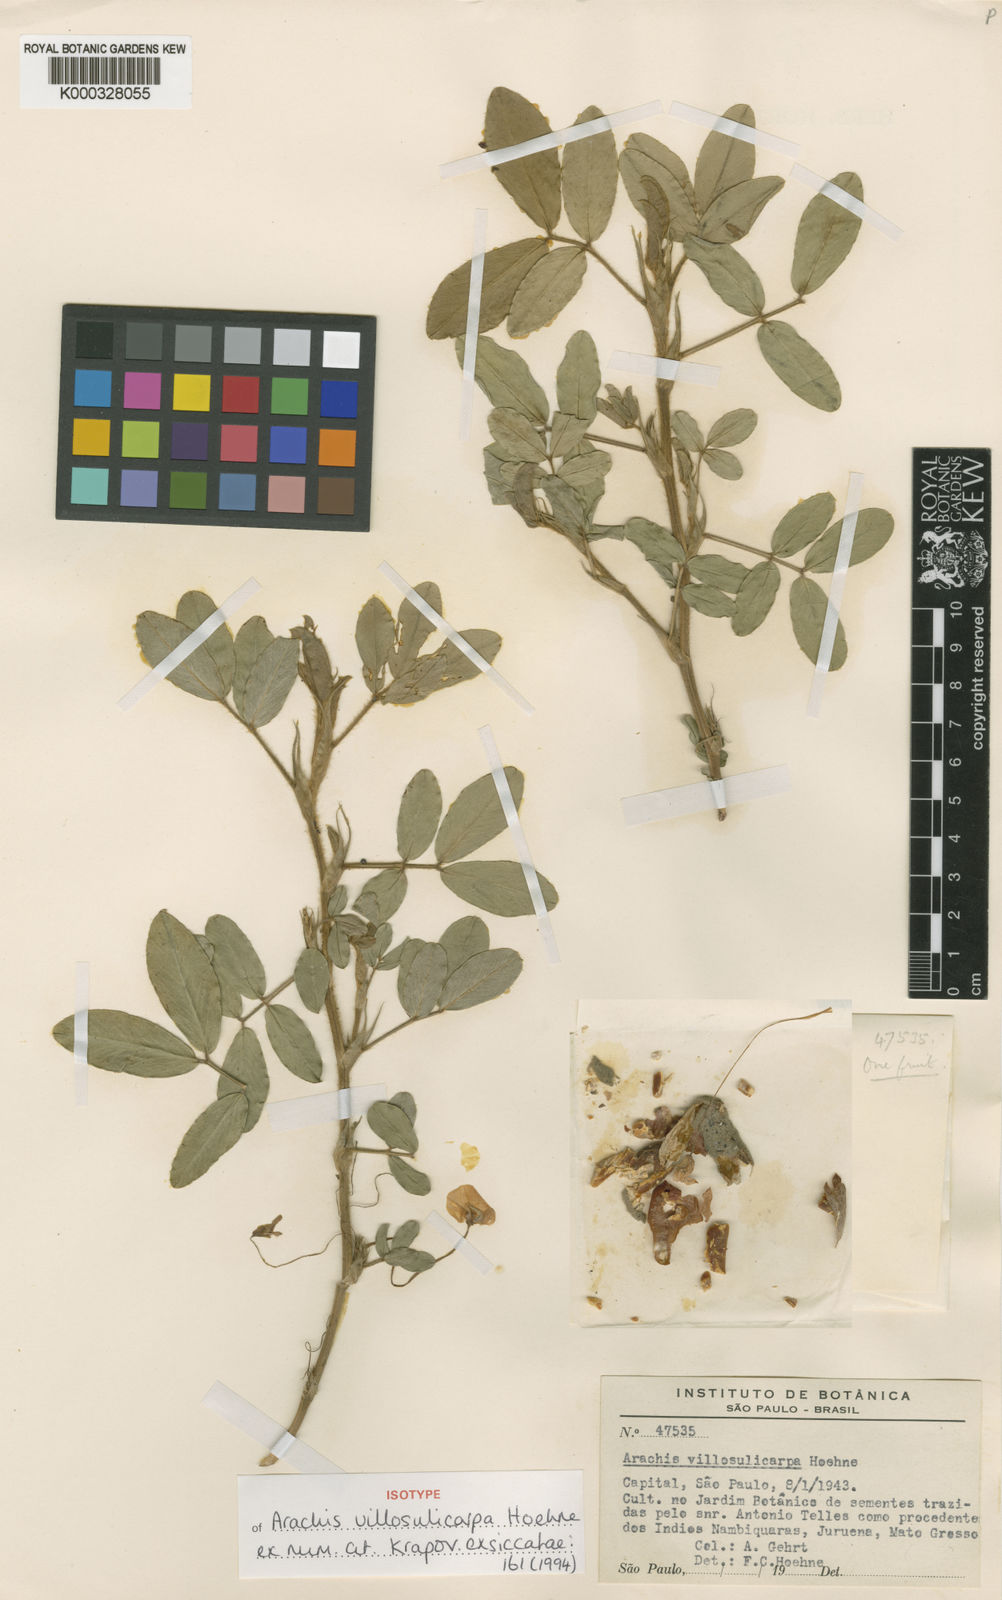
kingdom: Plantae
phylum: Tracheophyta
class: Magnoliopsida
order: Fabales
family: Fabaceae
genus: Arachis
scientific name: Arachis villosulicarpa
